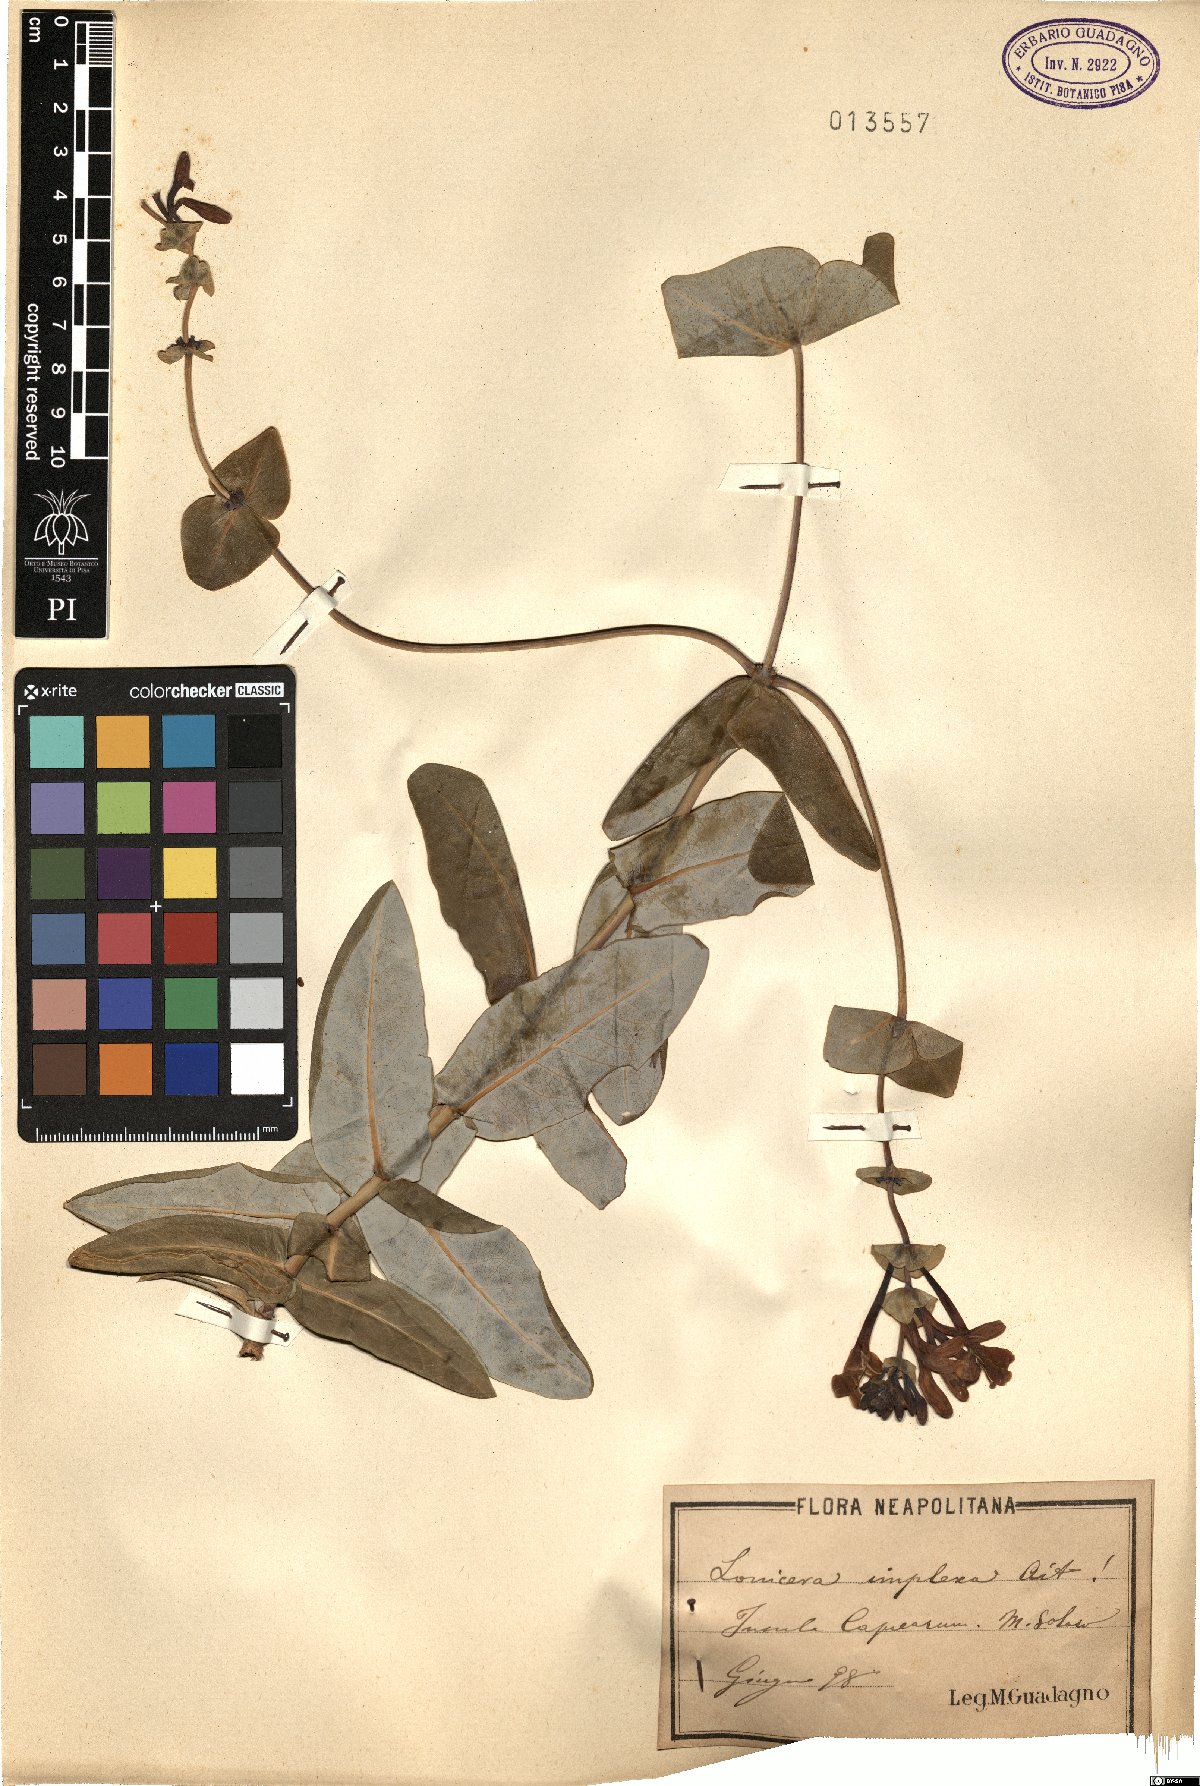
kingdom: Plantae
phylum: Tracheophyta
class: Magnoliopsida
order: Dipsacales
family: Caprifoliaceae
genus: Lonicera
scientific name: Lonicera implexa
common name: Minorca honeysuckle
